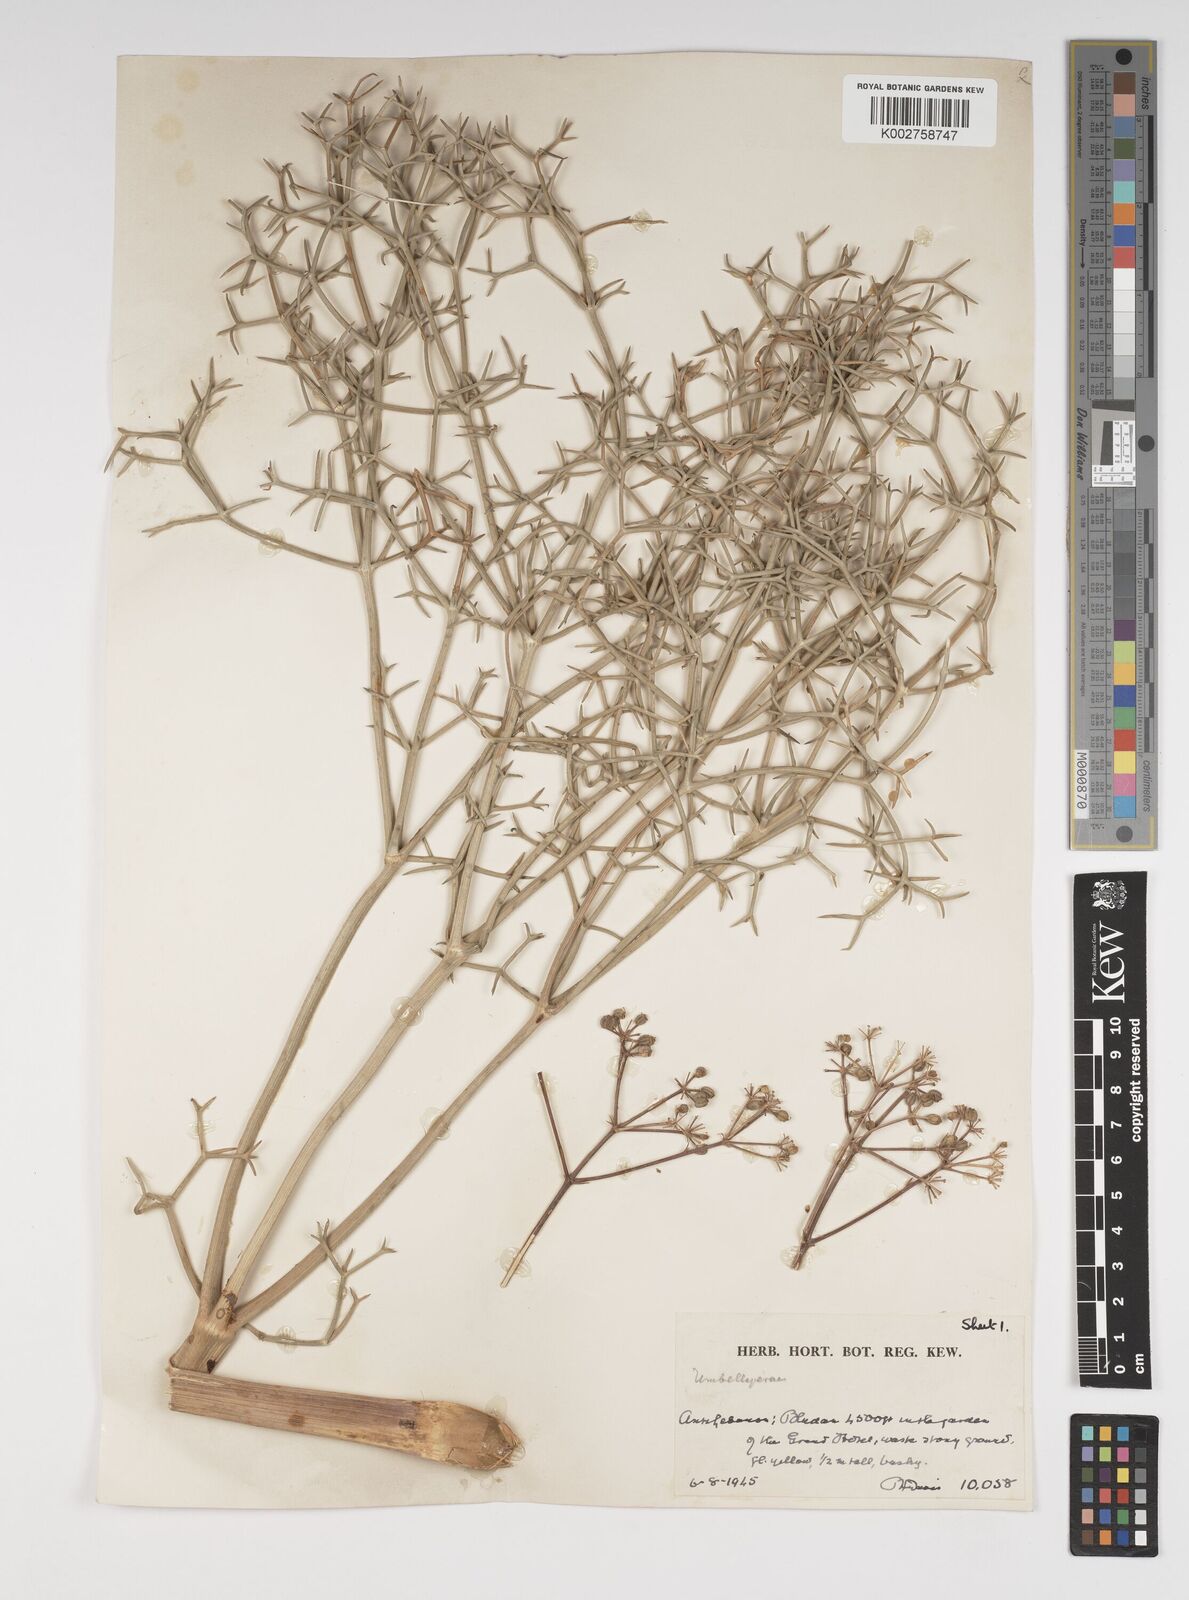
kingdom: Plantae
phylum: Tracheophyta
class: Magnoliopsida
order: Apiales
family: Apiaceae
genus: Cachrys
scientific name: Cachrys boissieri
